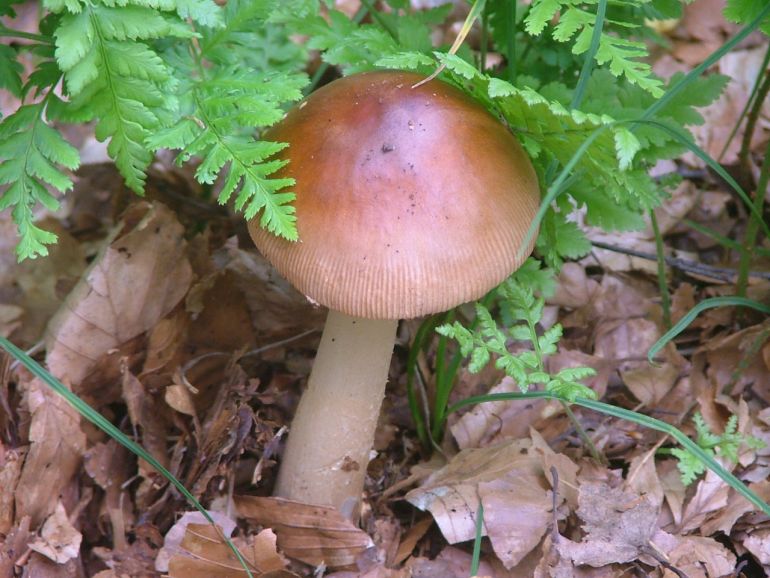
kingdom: Fungi
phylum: Basidiomycota
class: Agaricomycetes
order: Agaricales
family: Amanitaceae
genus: Amanita
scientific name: Amanita fulva
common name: brun kam-fluesvamp
